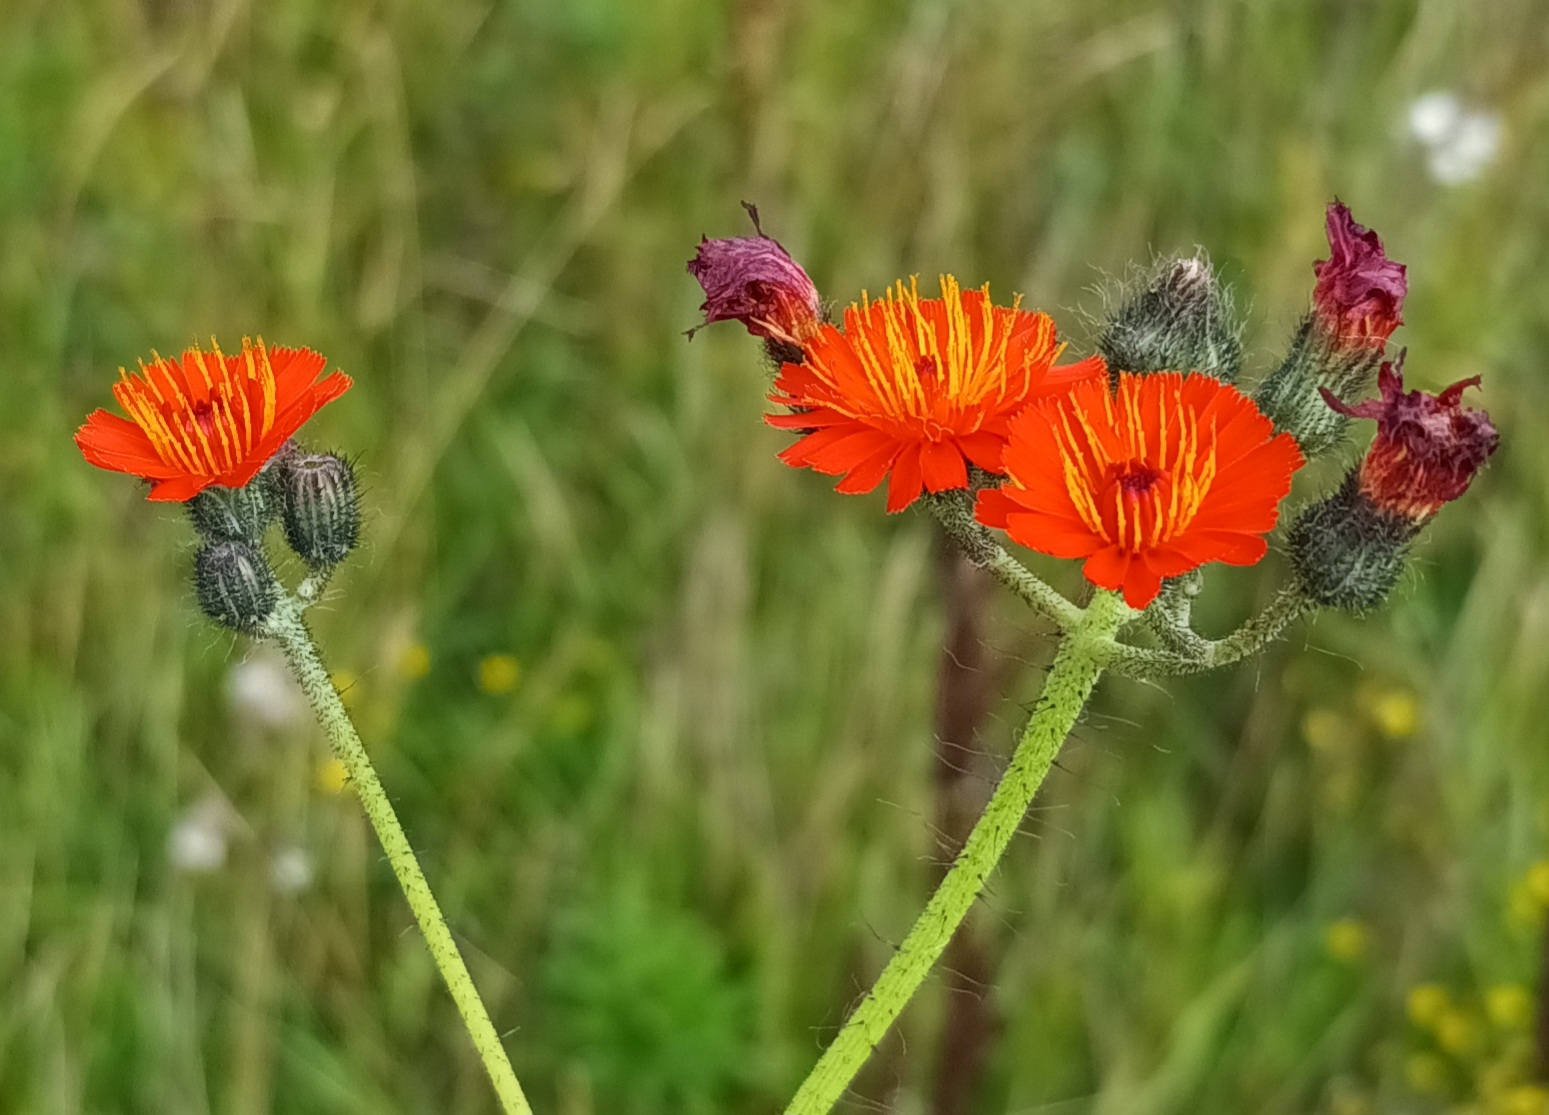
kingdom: Plantae
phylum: Tracheophyta
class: Magnoliopsida
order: Asterales
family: Asteraceae
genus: Pilosella
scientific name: Pilosella aurantiaca
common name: Pomerans-høgeurt
